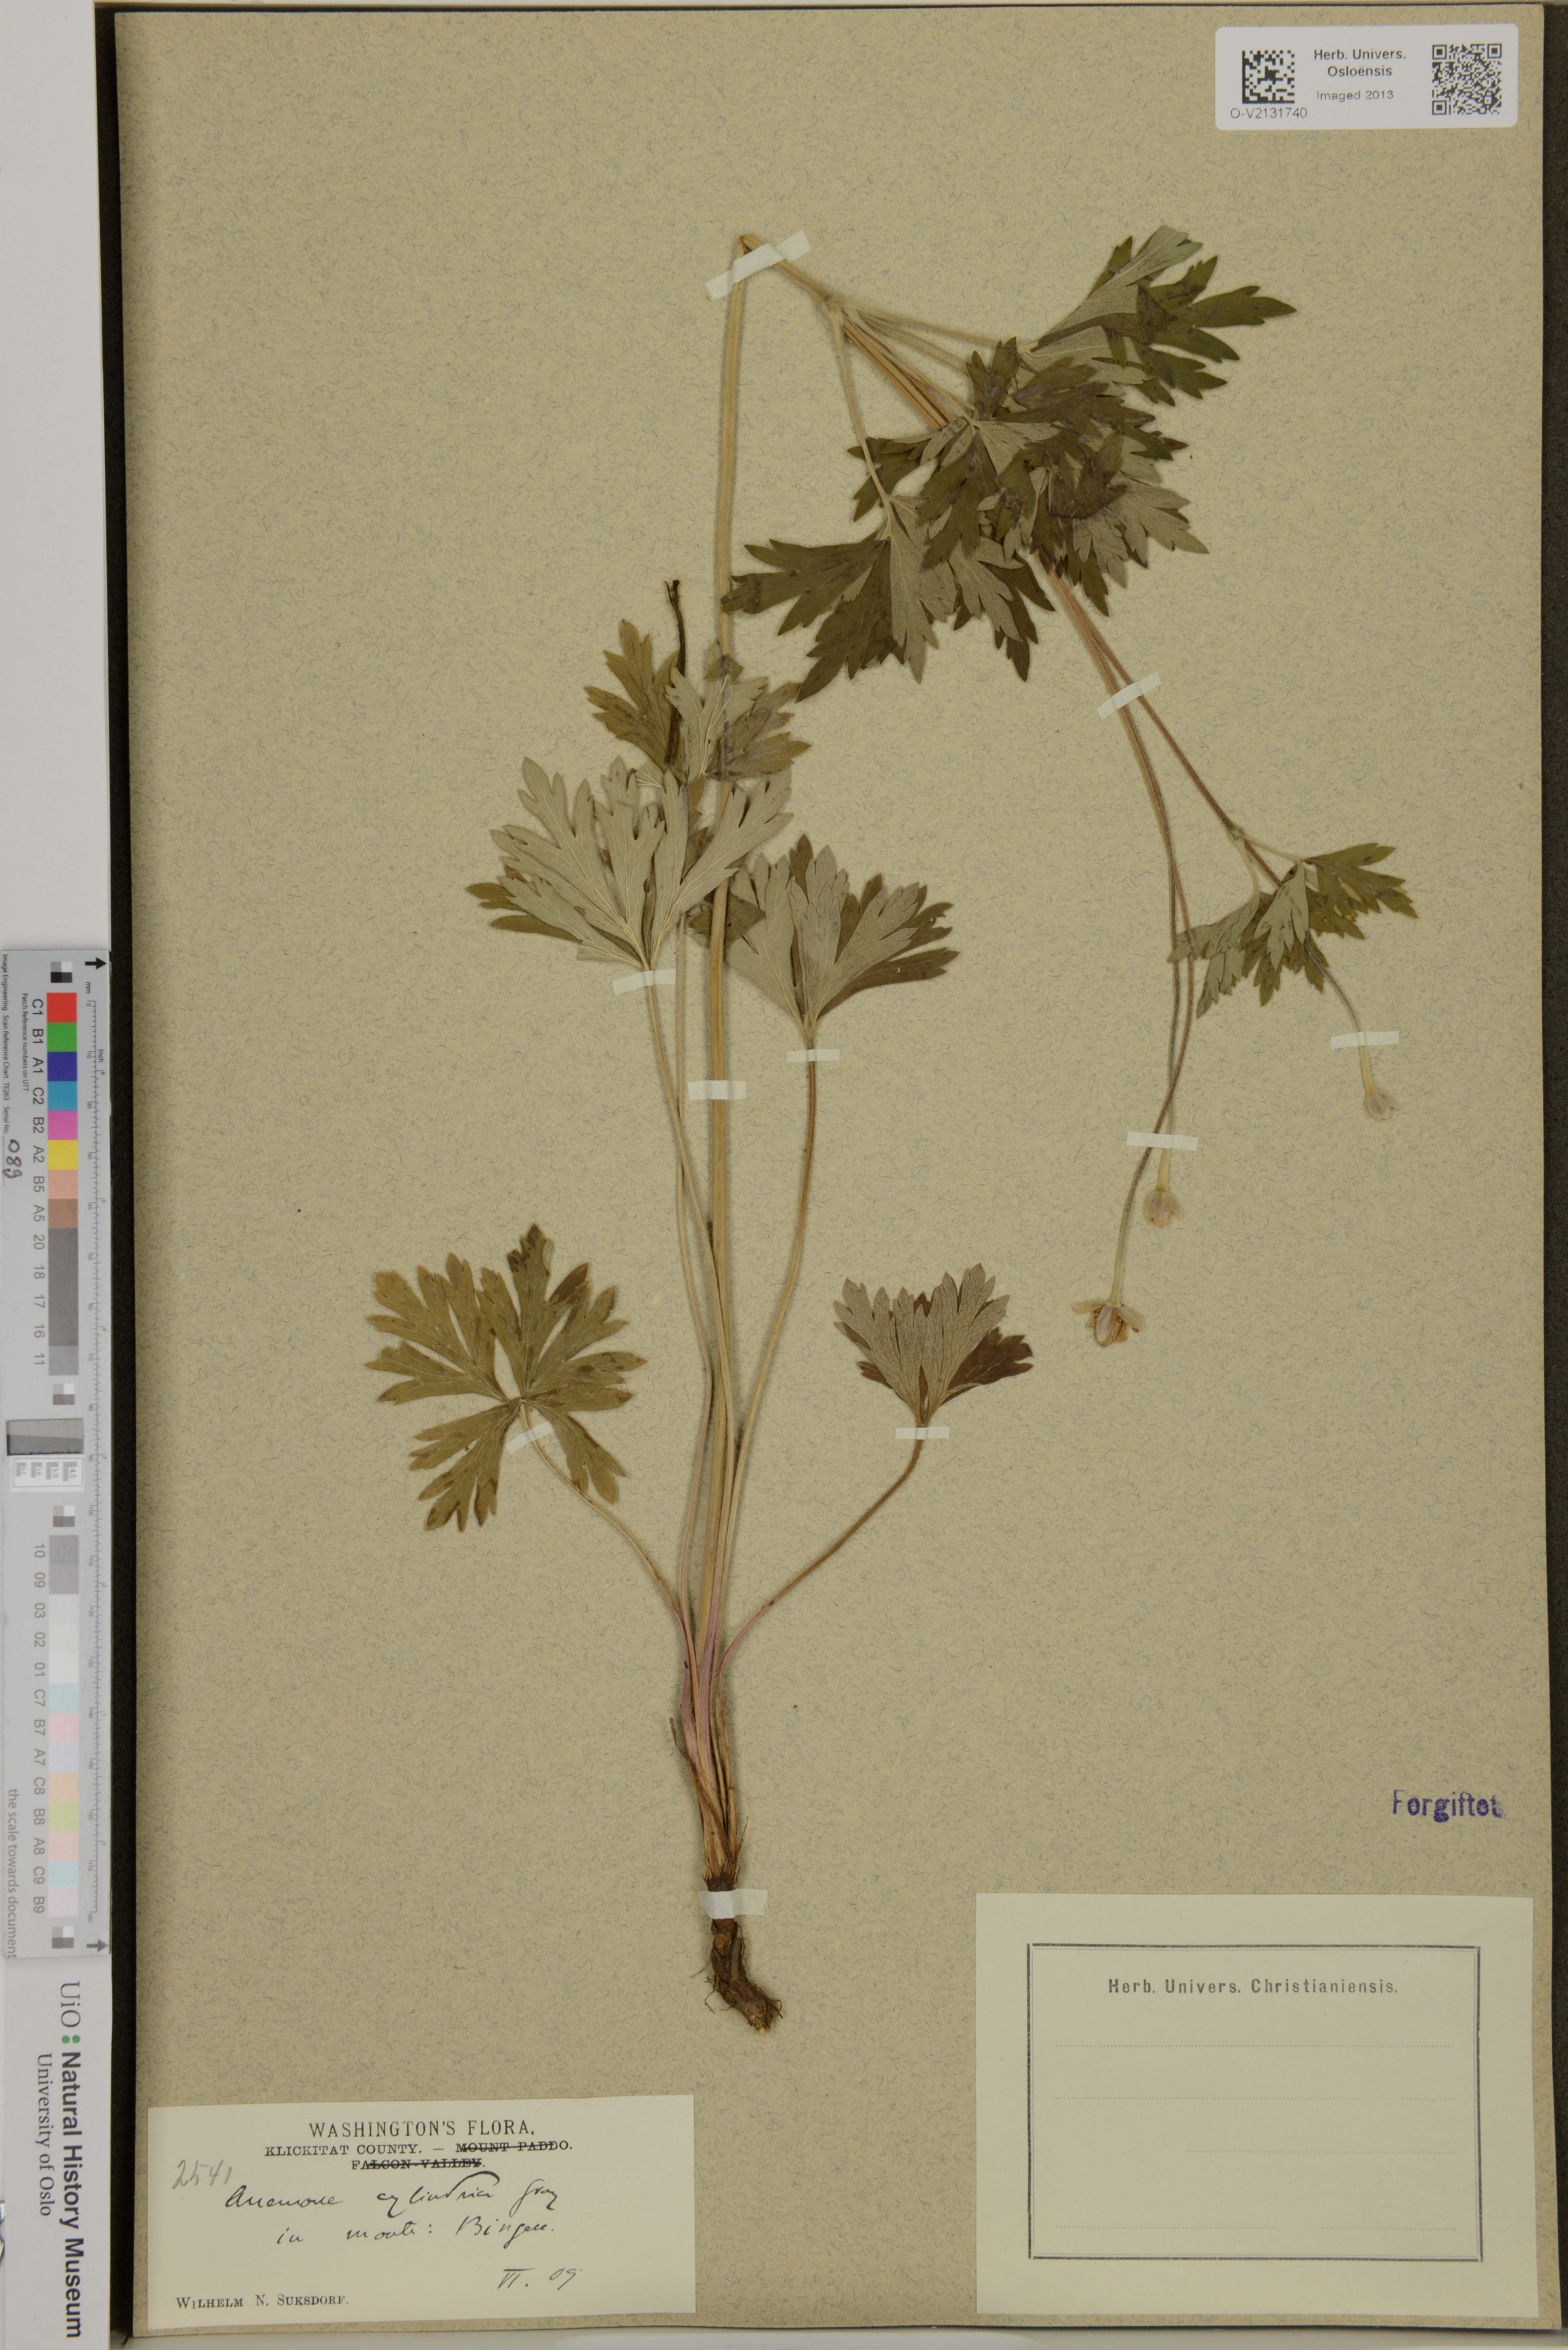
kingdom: Plantae
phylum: Tracheophyta
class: Magnoliopsida
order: Ranunculales
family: Ranunculaceae
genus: Anemone
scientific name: Anemone cylindrica
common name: Candle anemone
